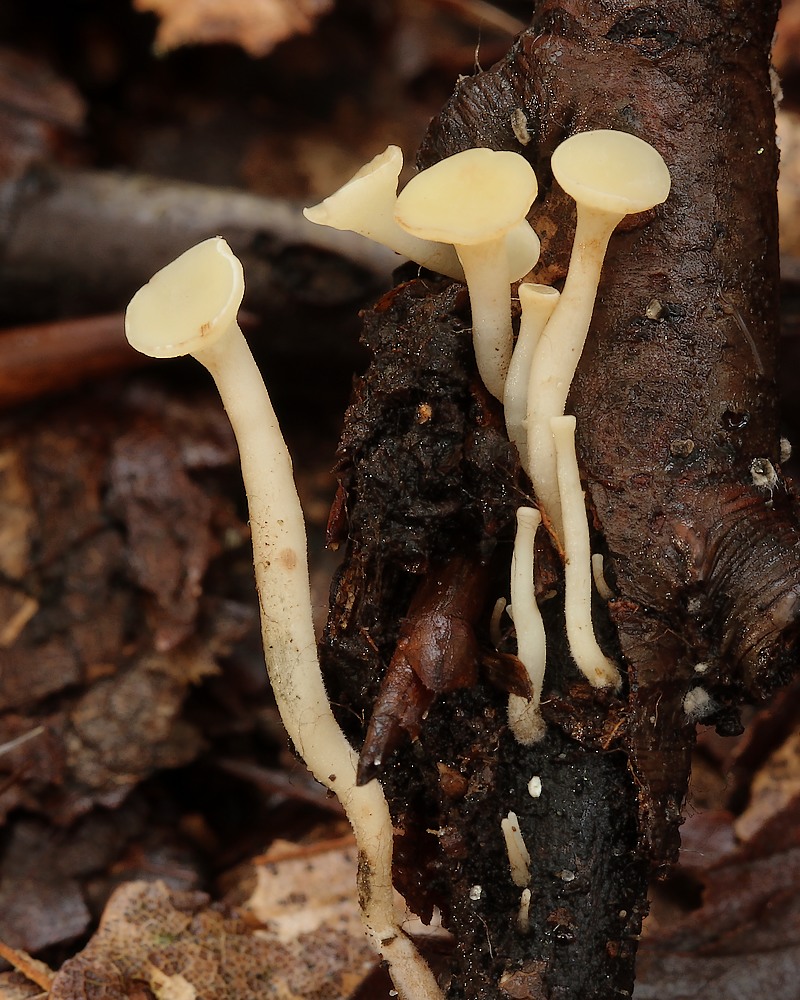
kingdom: Fungi
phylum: Ascomycota
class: Leotiomycetes
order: Helotiales
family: Helotiaceae
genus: Hymenoscyphus
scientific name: Hymenoscyphus serotinus
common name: krumsporet stilkskive
